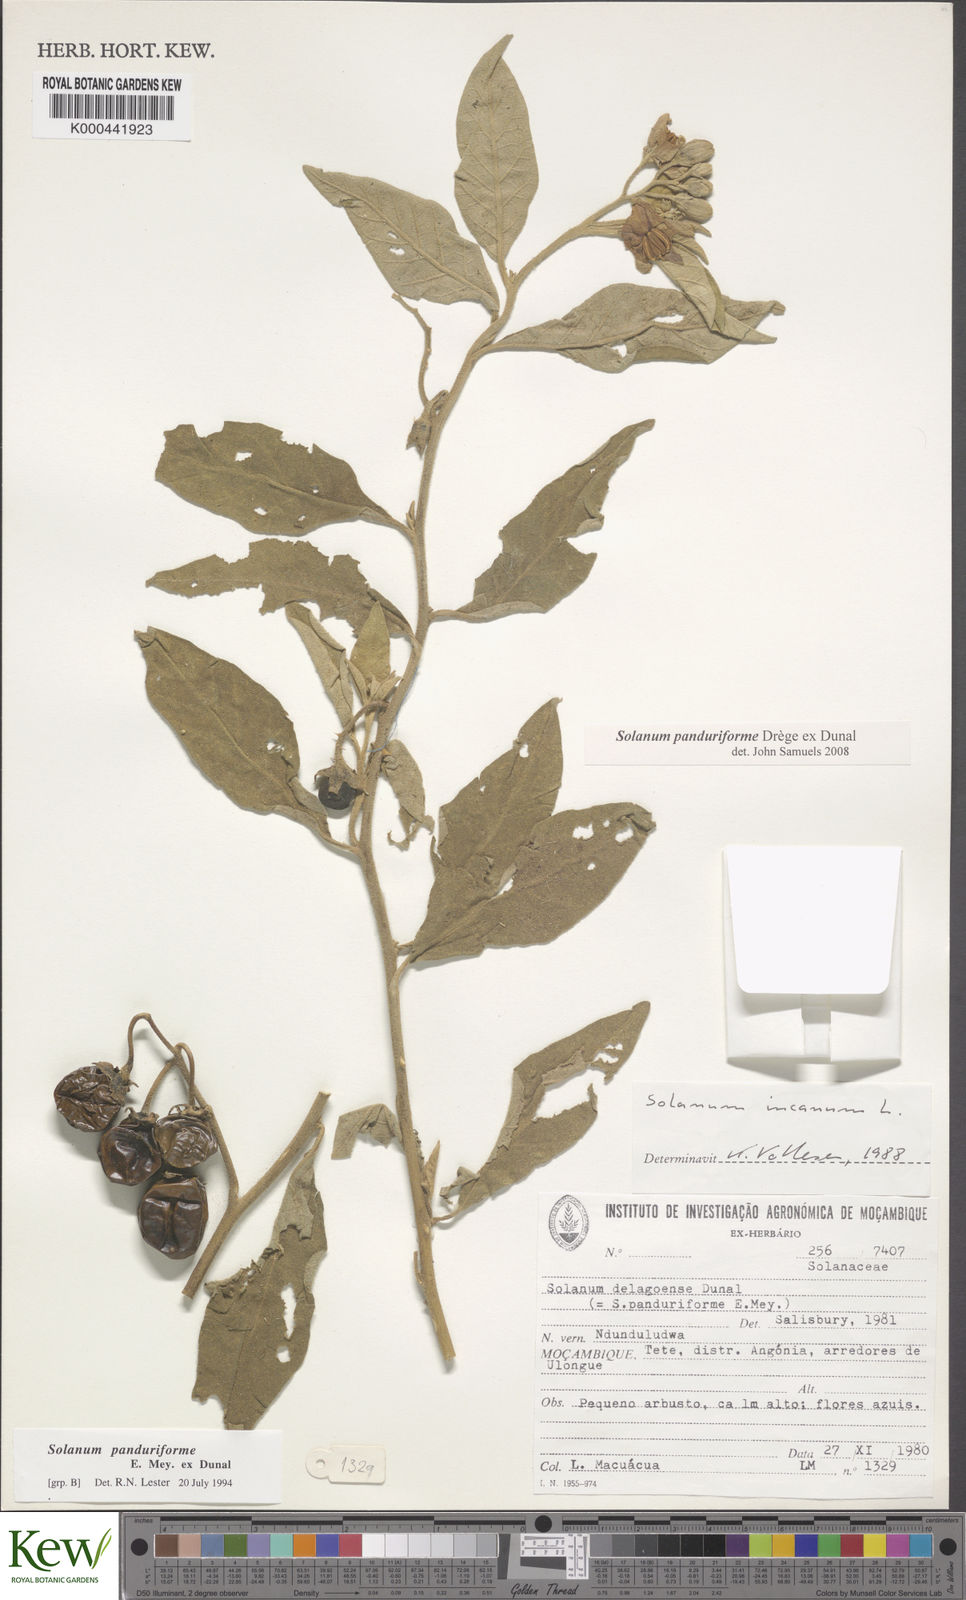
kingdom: Plantae
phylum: Tracheophyta
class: Magnoliopsida
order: Solanales
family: Solanaceae
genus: Solanum
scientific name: Solanum campylacanthum
